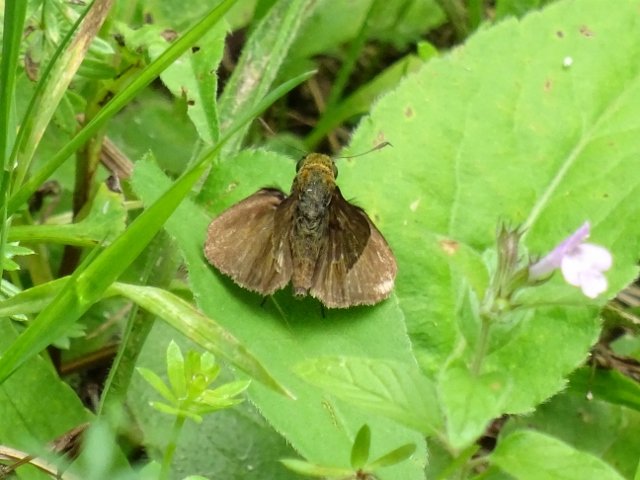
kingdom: Animalia
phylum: Arthropoda
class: Insecta
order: Lepidoptera
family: Hesperiidae
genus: Euphyes
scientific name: Euphyes vestris
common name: Dun Skipper
